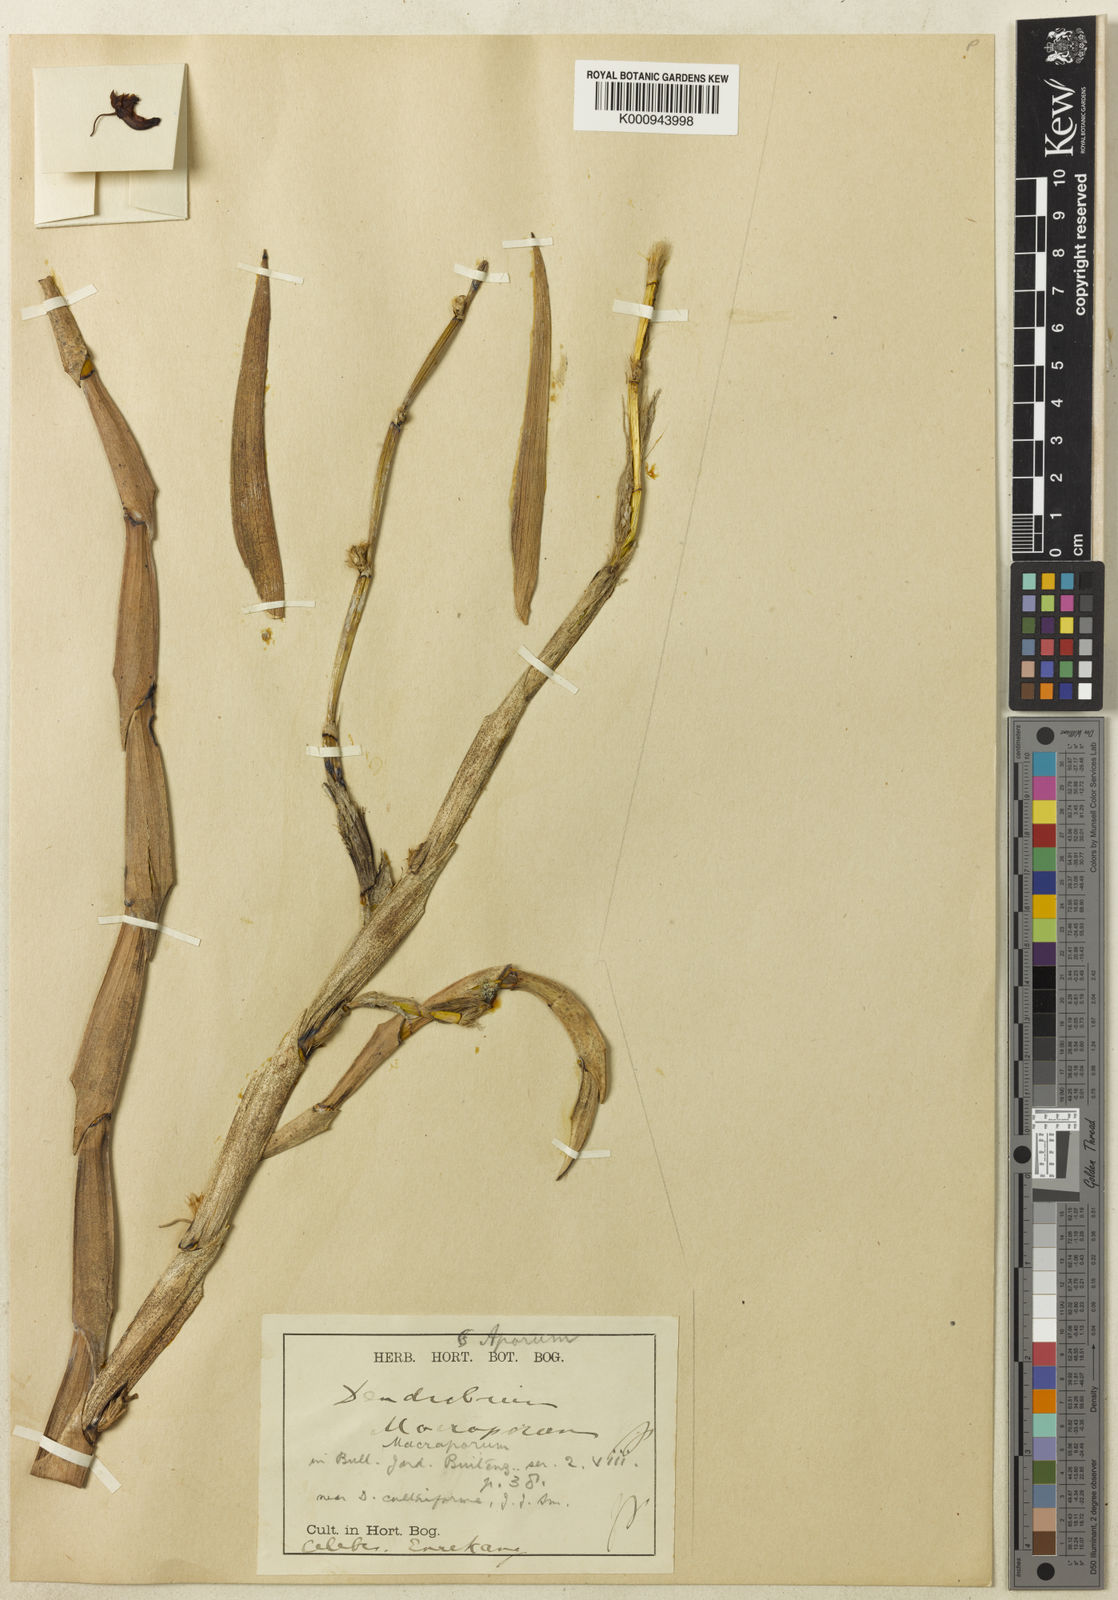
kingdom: Plantae
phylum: Tracheophyta
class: Liliopsida
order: Asparagales
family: Orchidaceae
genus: Dendrobium
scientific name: Dendrobium macraporum
